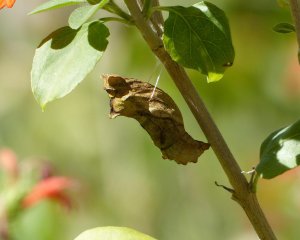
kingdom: Animalia
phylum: Arthropoda
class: Insecta
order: Lepidoptera
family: Papilionidae
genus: Battus
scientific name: Battus philenor
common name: Pipevine Swallowtail
